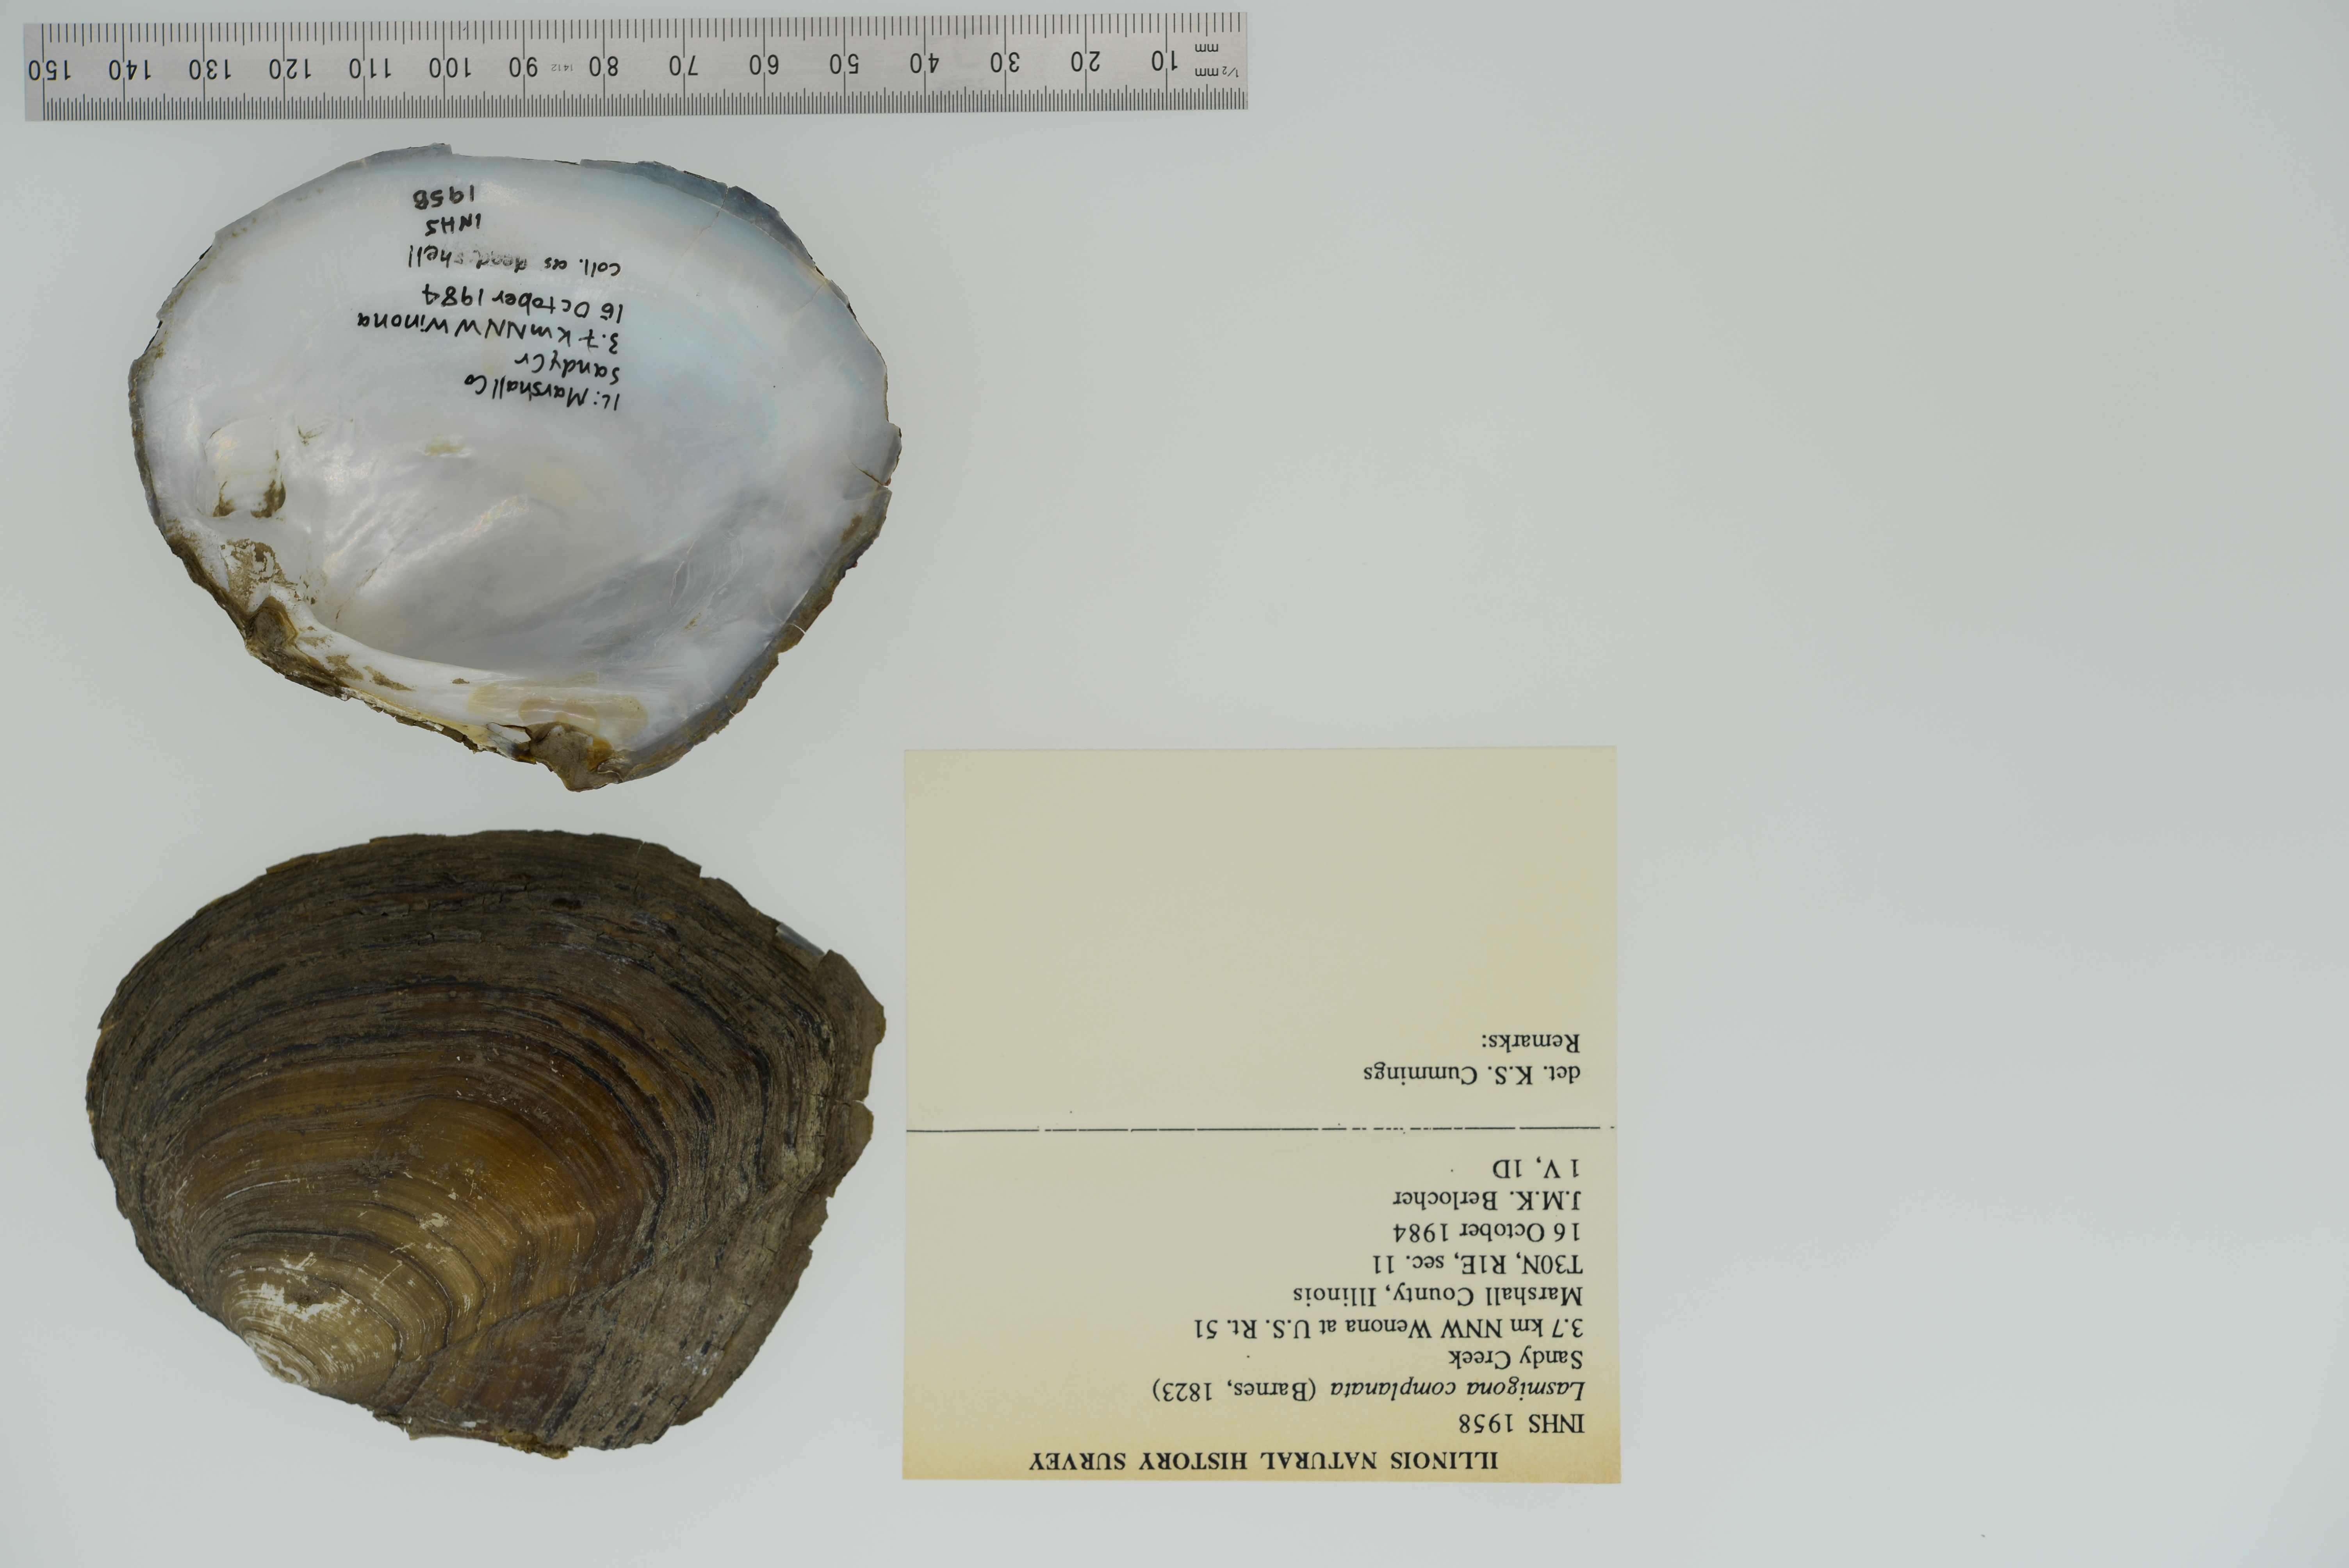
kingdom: Animalia
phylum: Mollusca
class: Bivalvia
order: Unionida
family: Unionidae
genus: Lasmigona
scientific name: Lasmigona complanata
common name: White heelsplitter
